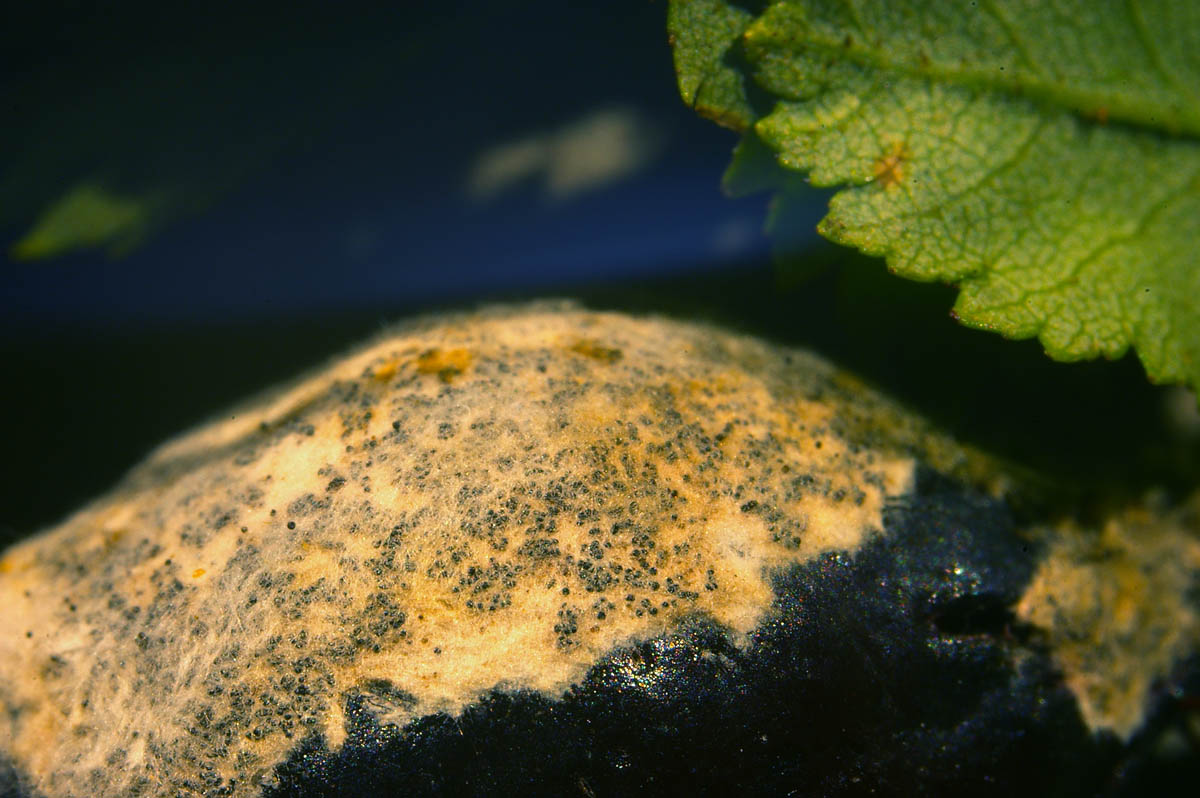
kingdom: Fungi
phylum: Ascomycota
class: Leotiomycetes
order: Helotiales
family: Erysiphaceae
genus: Podosphaera
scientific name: Podosphaera pannosa
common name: Rose mildew
